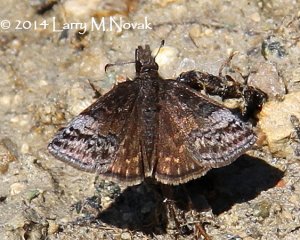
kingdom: Animalia
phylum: Arthropoda
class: Insecta
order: Lepidoptera
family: Hesperiidae
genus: Erynnis
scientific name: Erynnis icelus
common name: Dreamy Duskywing
